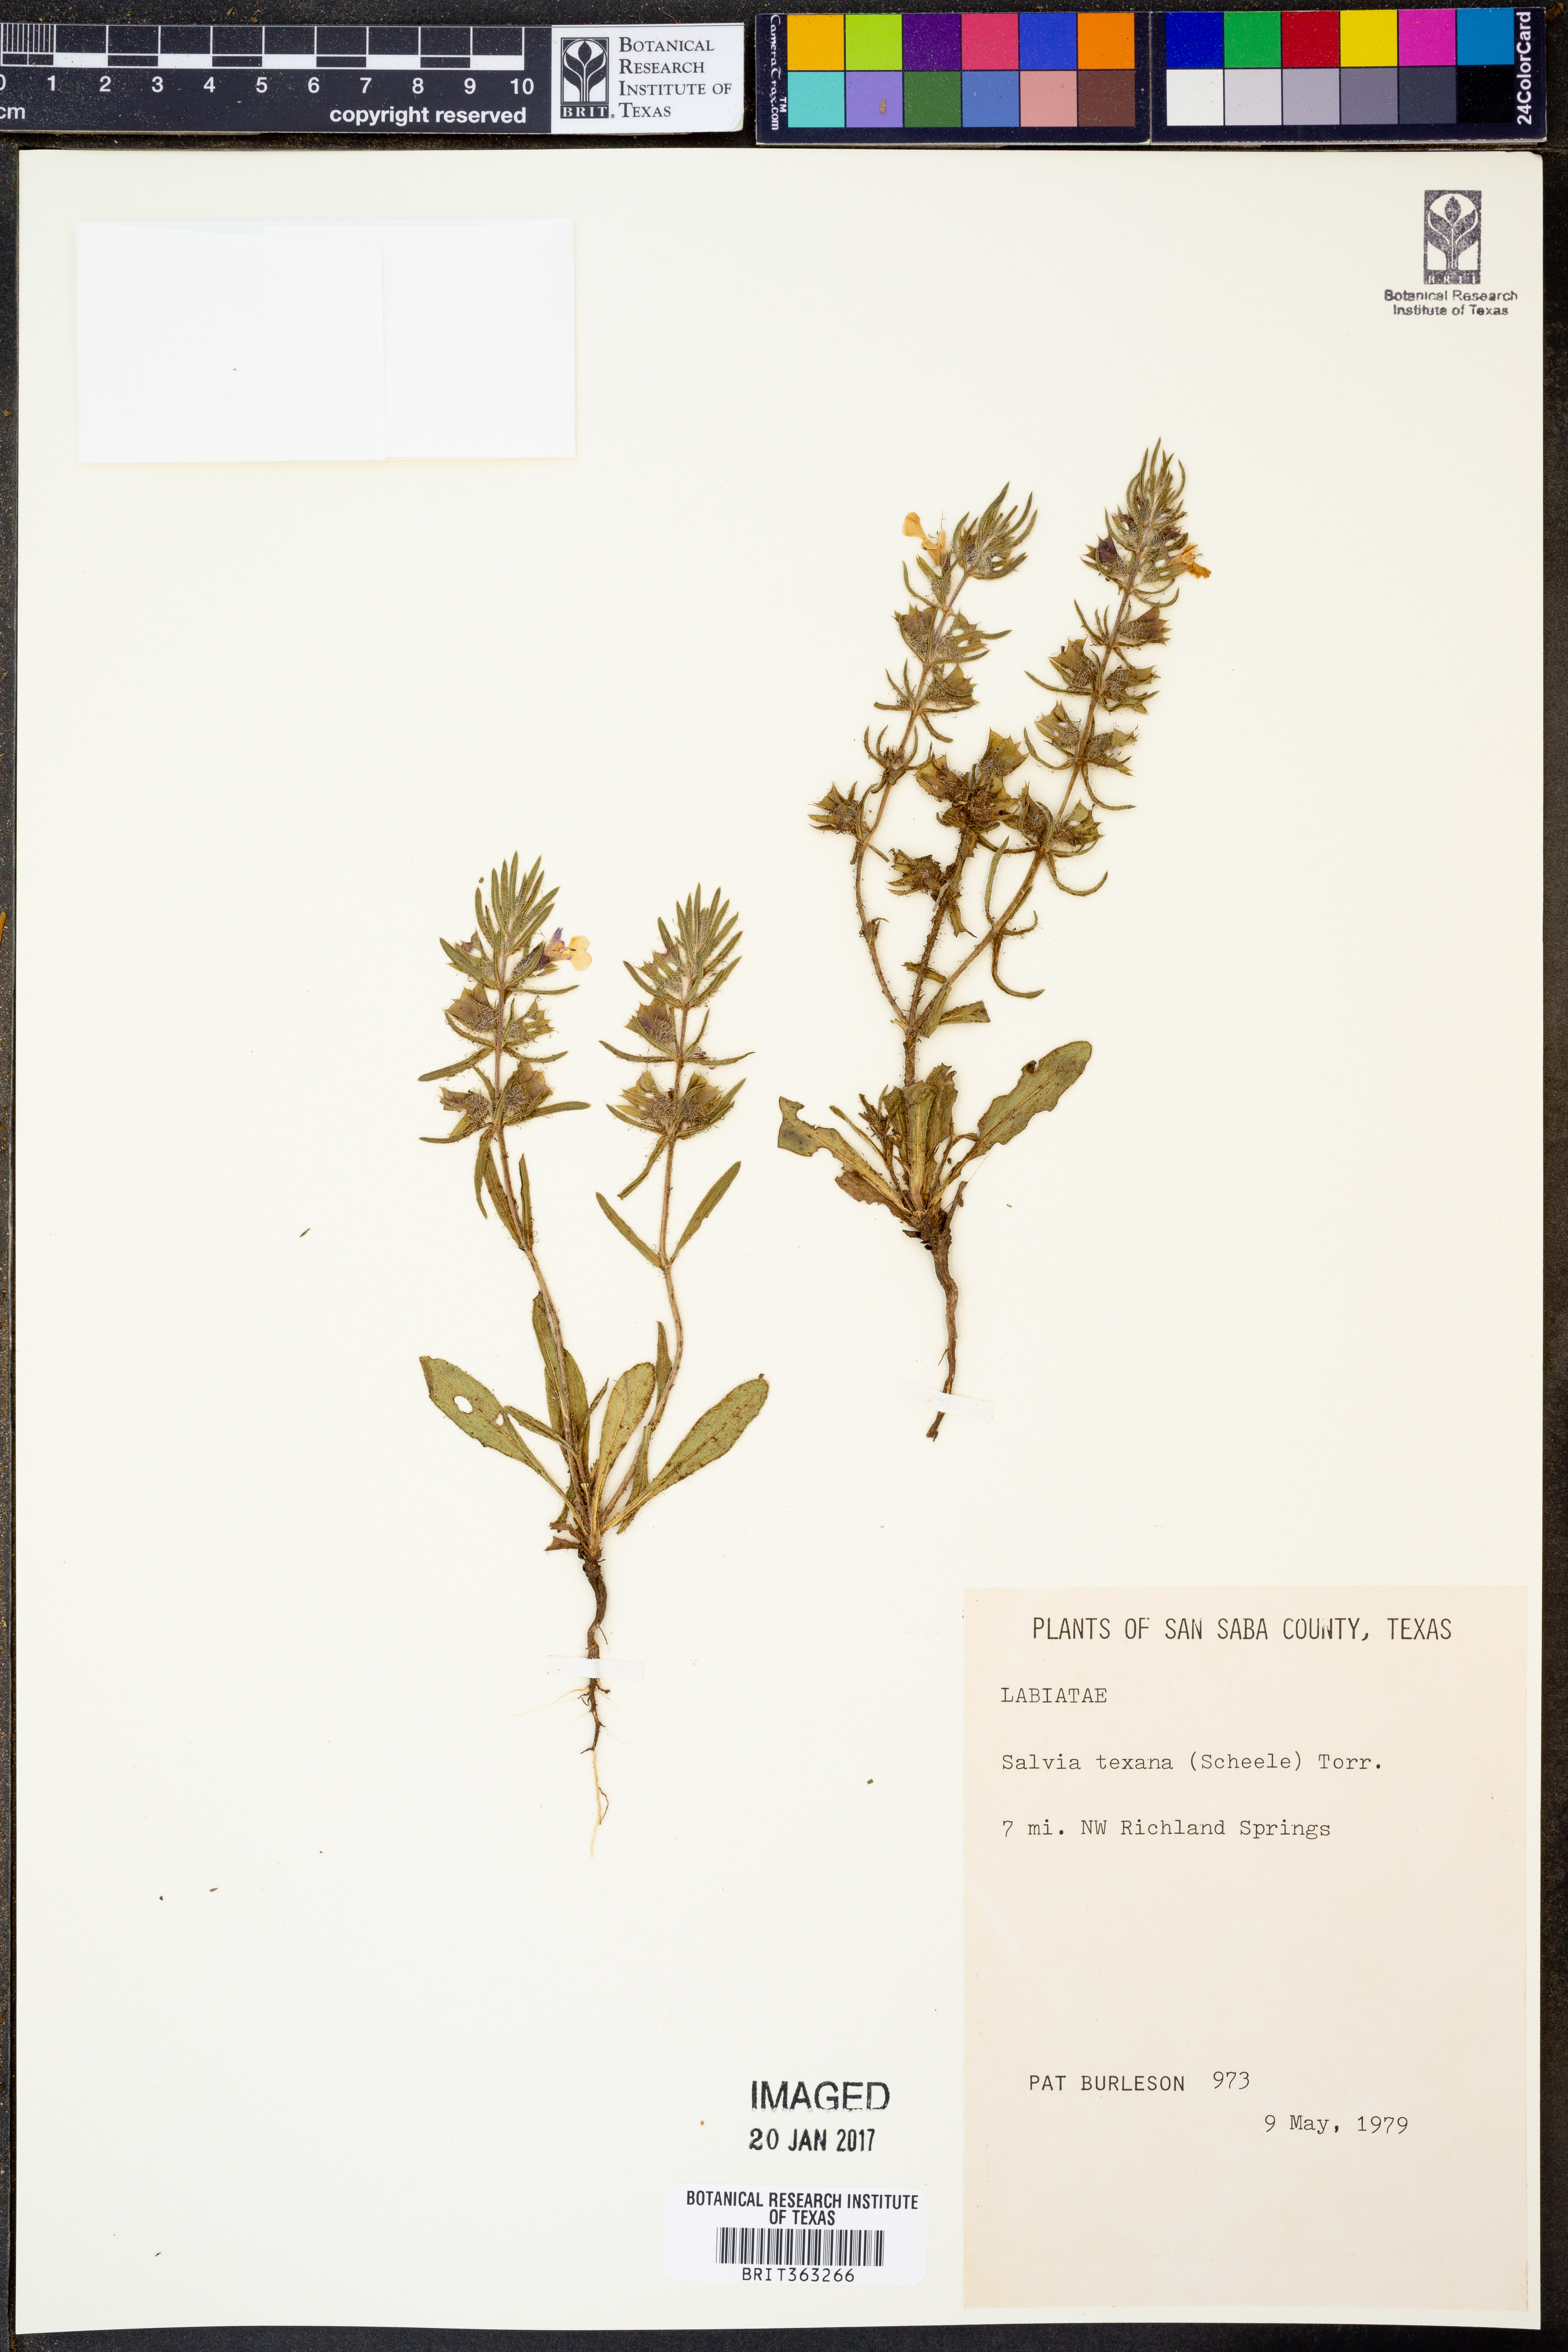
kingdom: Plantae
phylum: Tracheophyta
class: Magnoliopsida
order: Lamiales
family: Lamiaceae
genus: Salvia
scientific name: Salvia texana
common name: Texas sage
